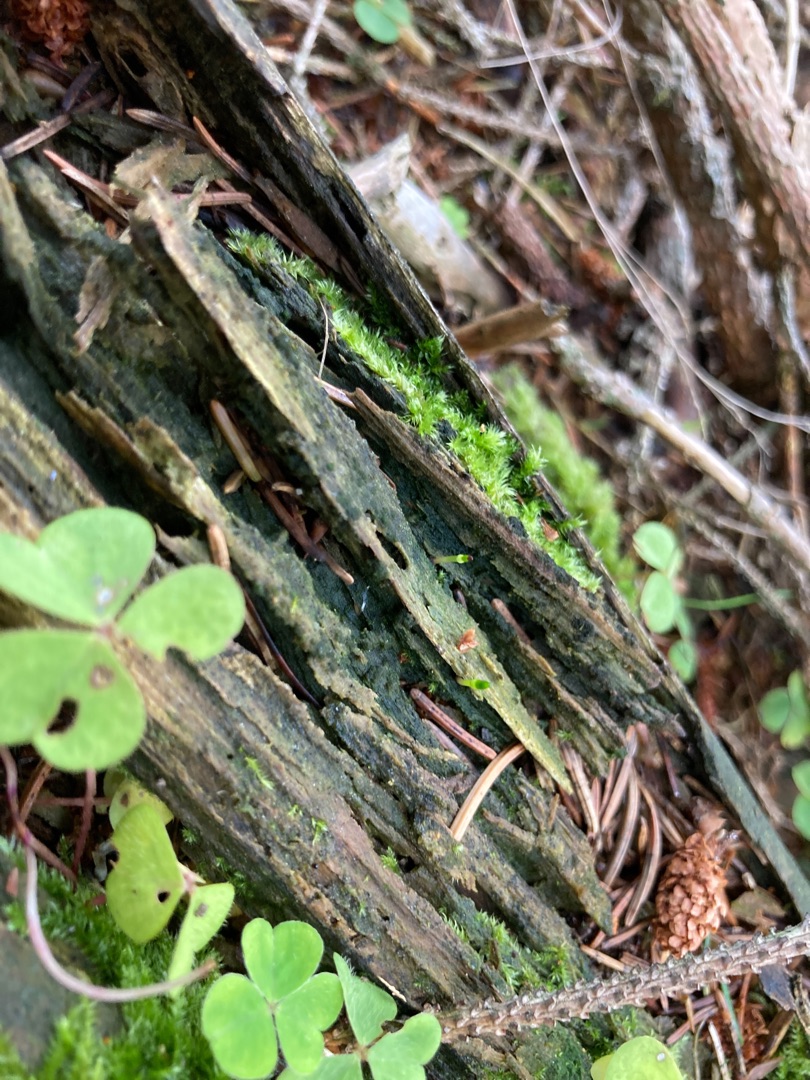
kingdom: Plantae
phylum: Bryophyta
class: Bryopsida
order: Buxbaumiales
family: Buxbaumiaceae
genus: Buxbaumia
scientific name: Buxbaumia viridis
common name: Grøn buxbaumia
